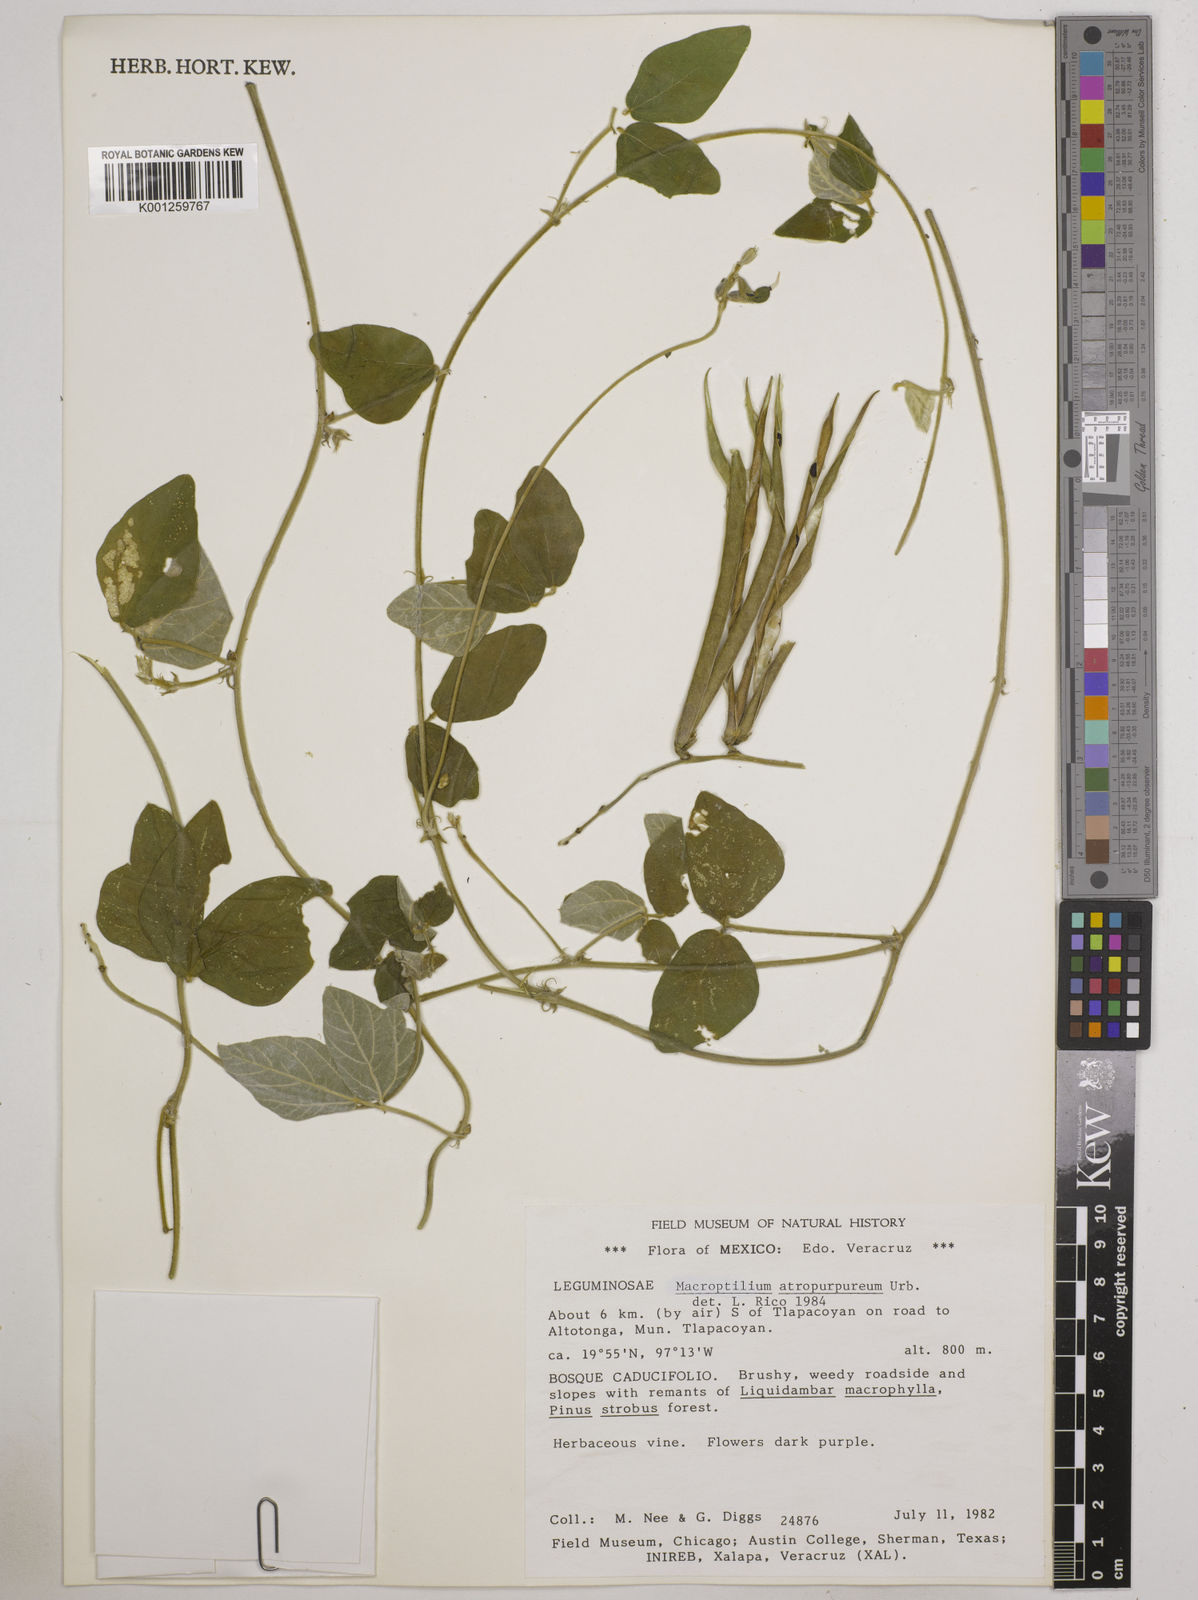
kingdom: Plantae
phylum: Tracheophyta
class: Magnoliopsida
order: Fabales
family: Fabaceae
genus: Macroptilium
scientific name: Macroptilium atropurpureum
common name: Purple bushbean
